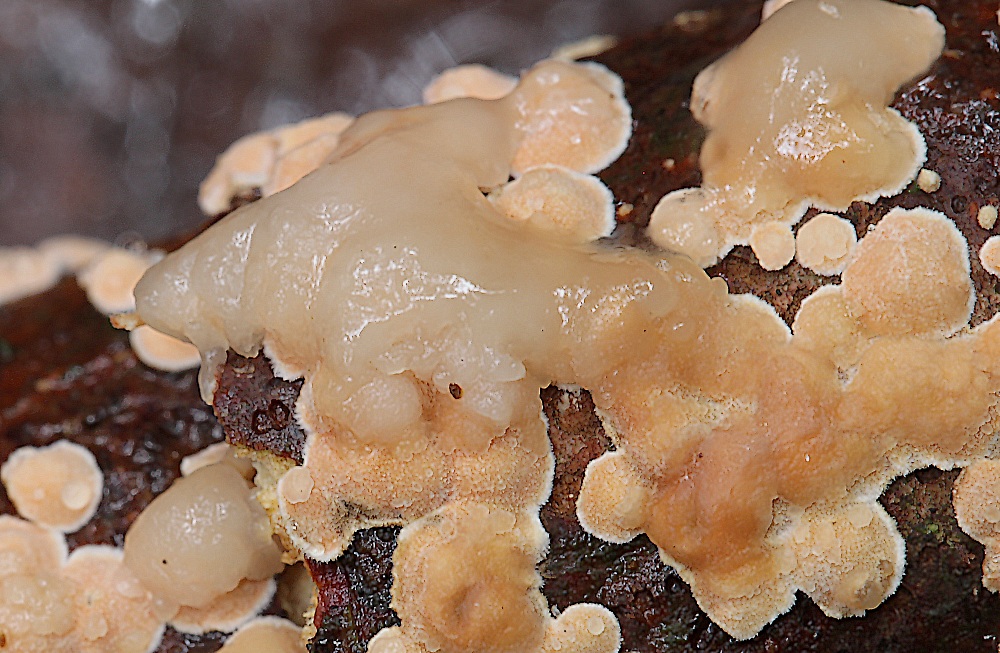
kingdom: Fungi
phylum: Basidiomycota
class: Tremellomycetes
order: Tremellales
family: Tremellaceae
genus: Phaeotremella
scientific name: Phaeotremella simplex
